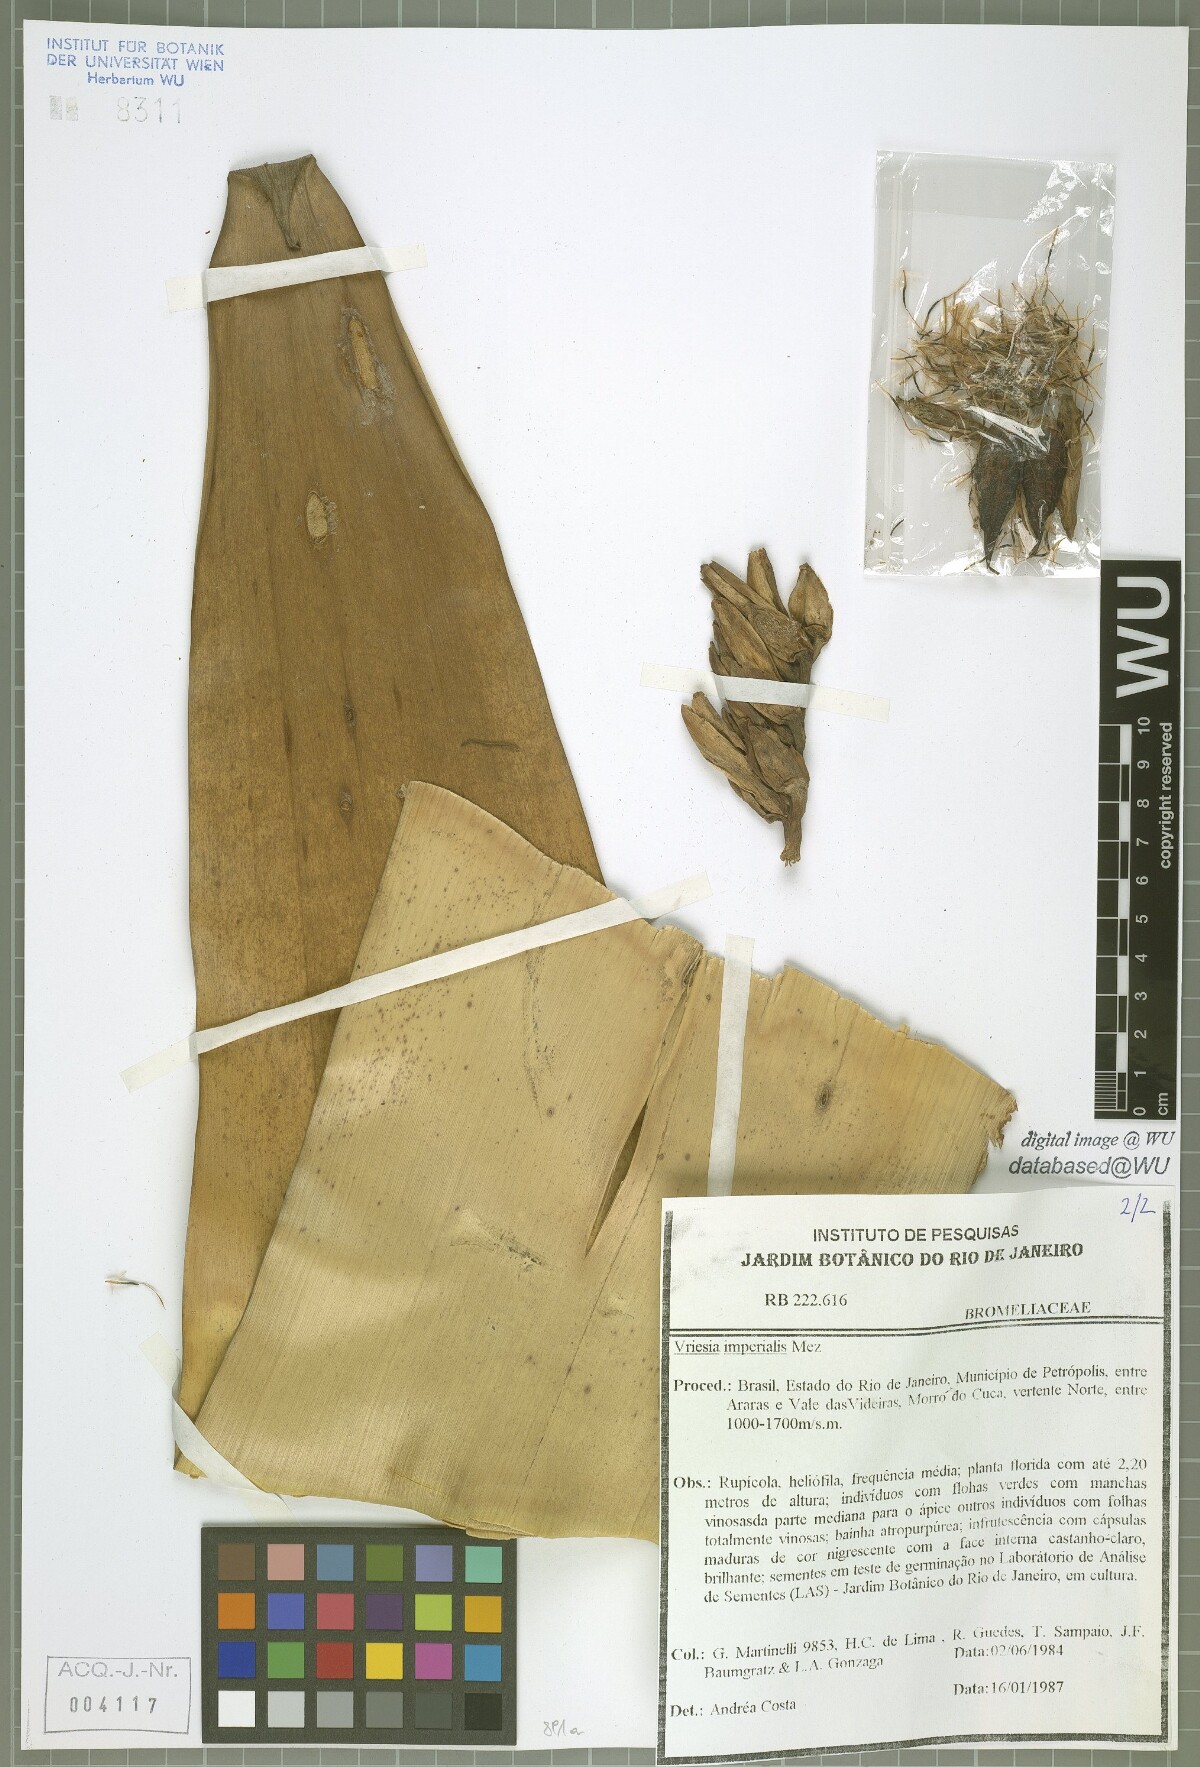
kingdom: Plantae
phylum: Tracheophyta
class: Liliopsida
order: Poales
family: Bromeliaceae
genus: Alcantarea
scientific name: Alcantarea imperialis
